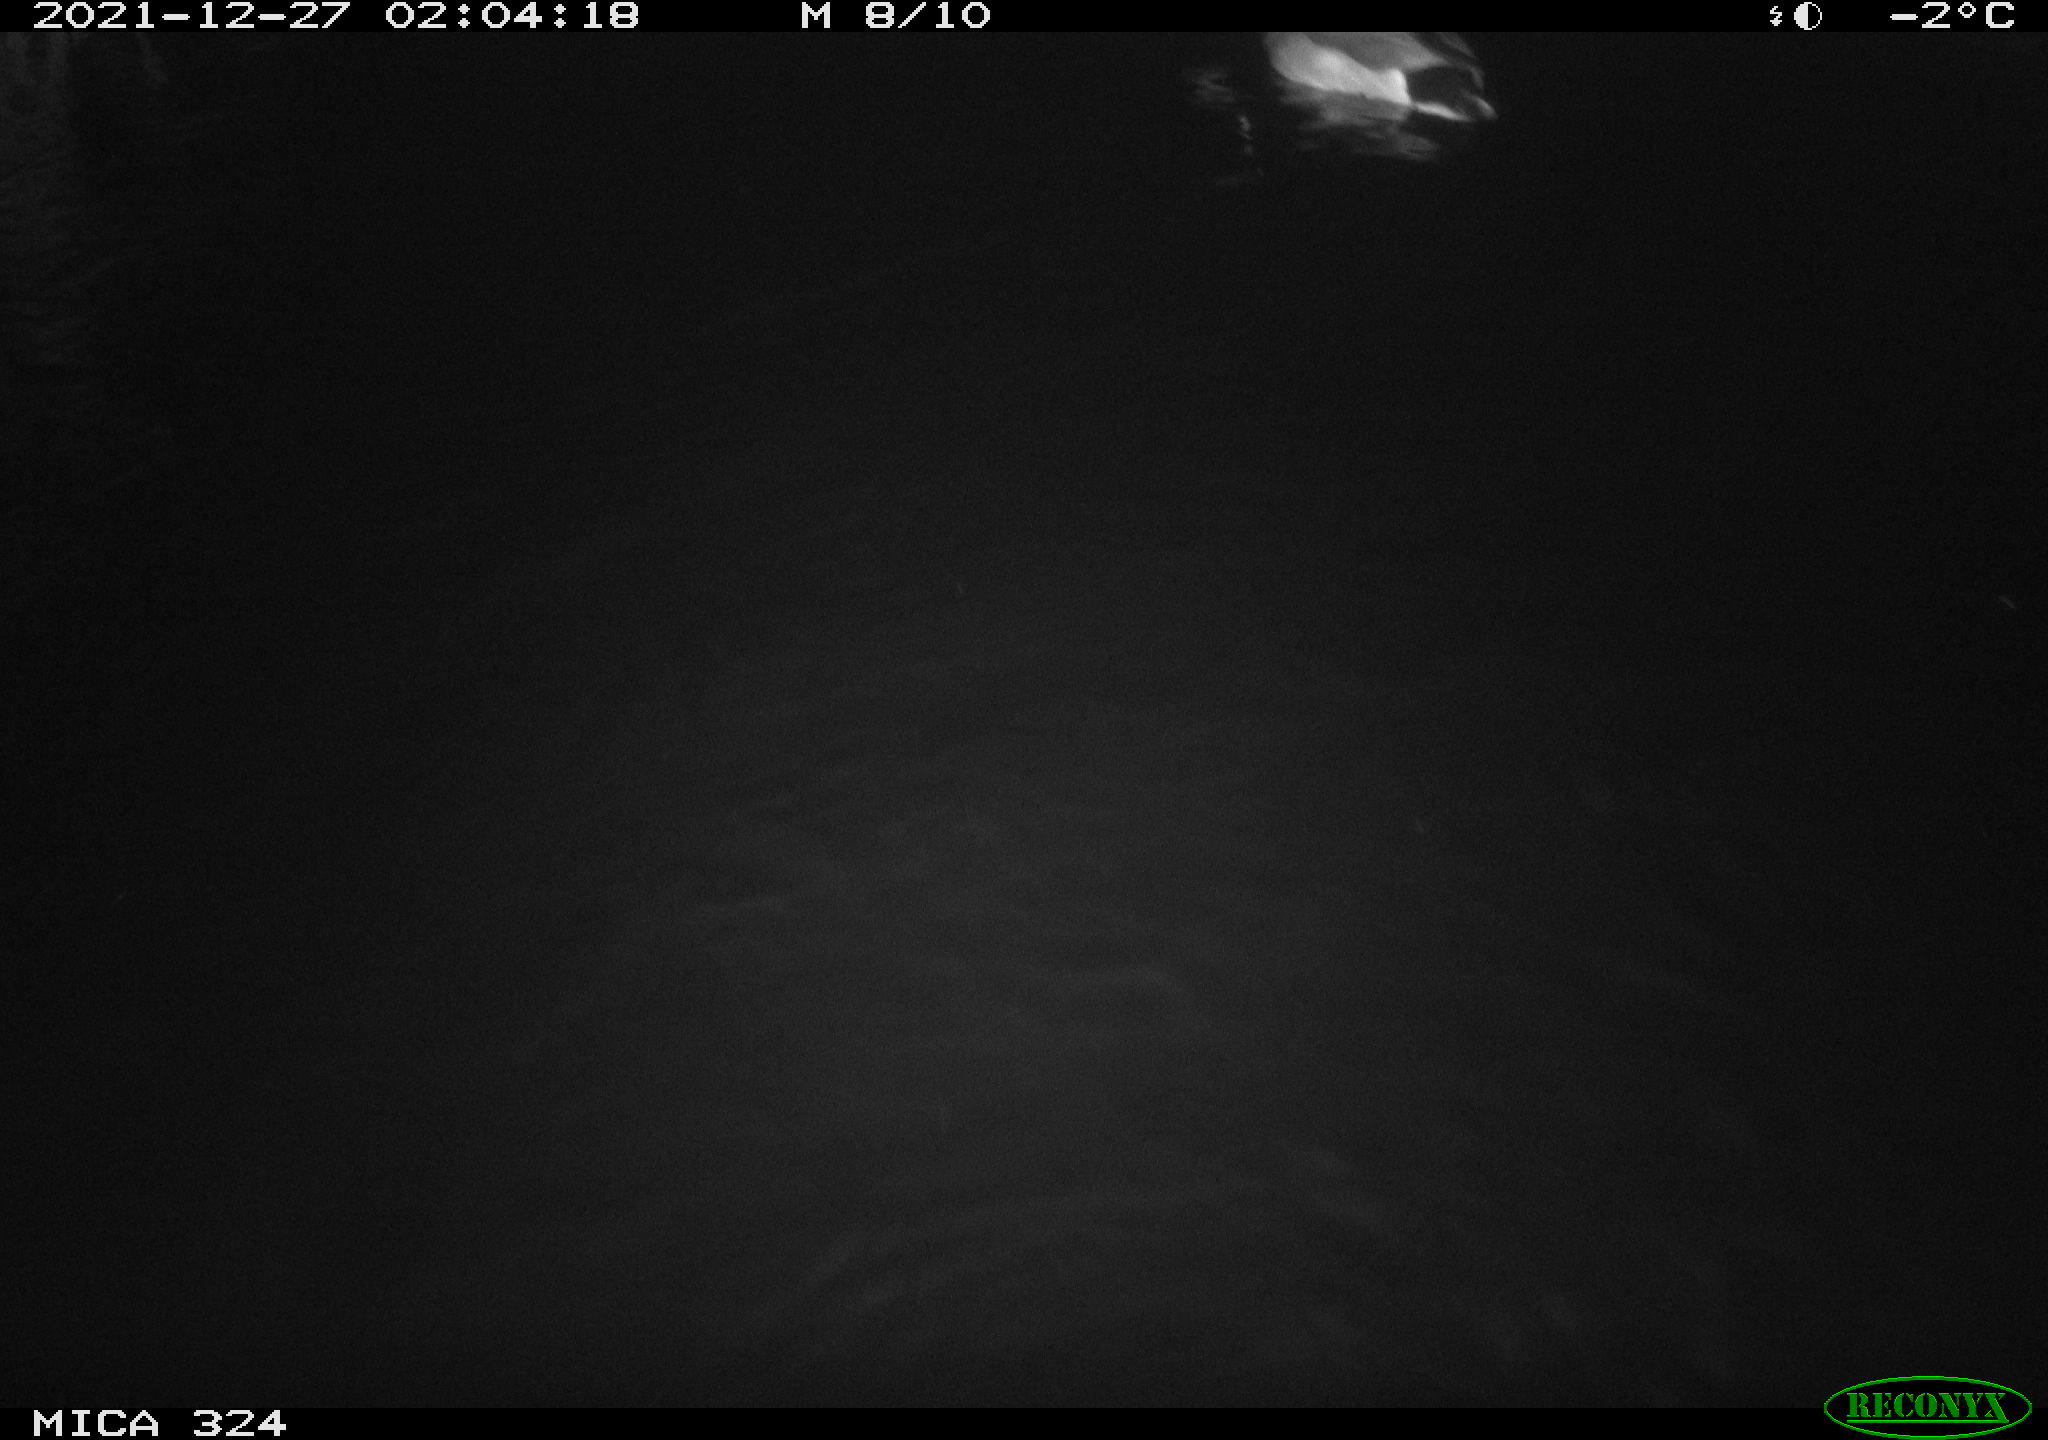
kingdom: Animalia
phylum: Chordata
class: Aves
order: Anseriformes
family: Anatidae
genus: Anas
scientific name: Anas platyrhynchos
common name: Mallard
